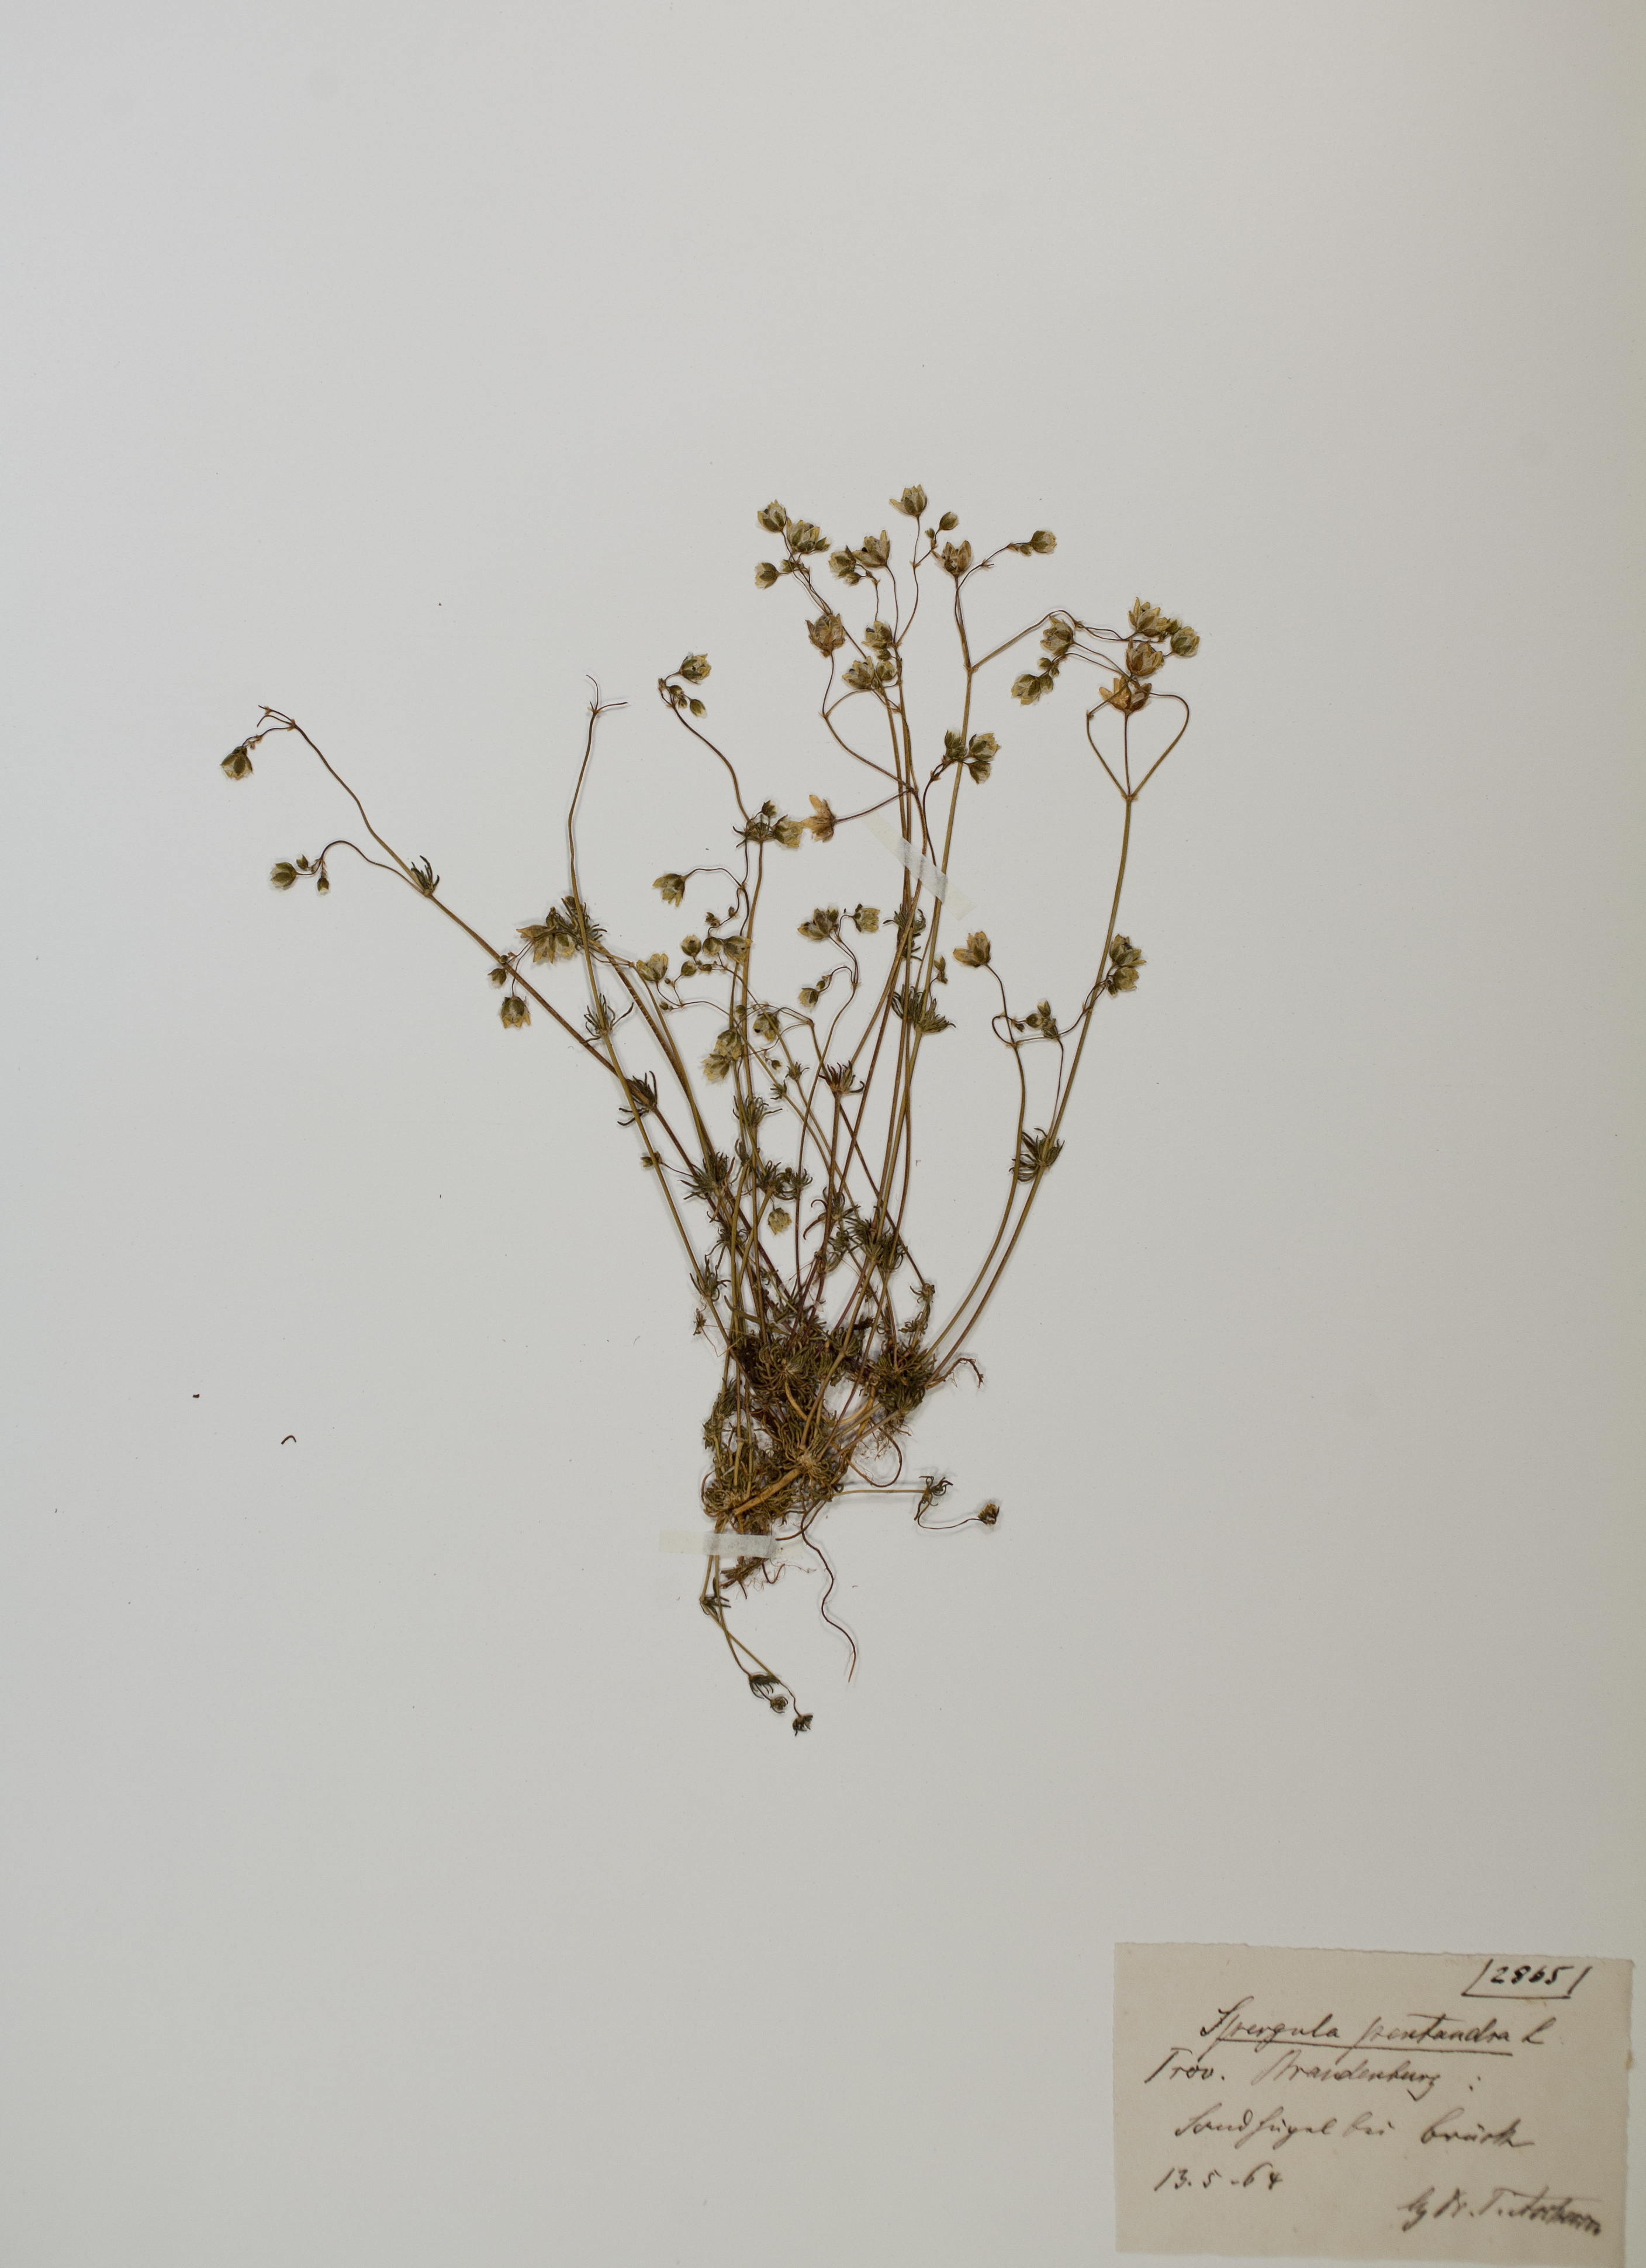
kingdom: Plantae
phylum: Tracheophyta
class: Magnoliopsida
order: Caryophyllales
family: Caryophyllaceae
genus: Spergula
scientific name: Spergula pentandra
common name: Wingstem spurry
